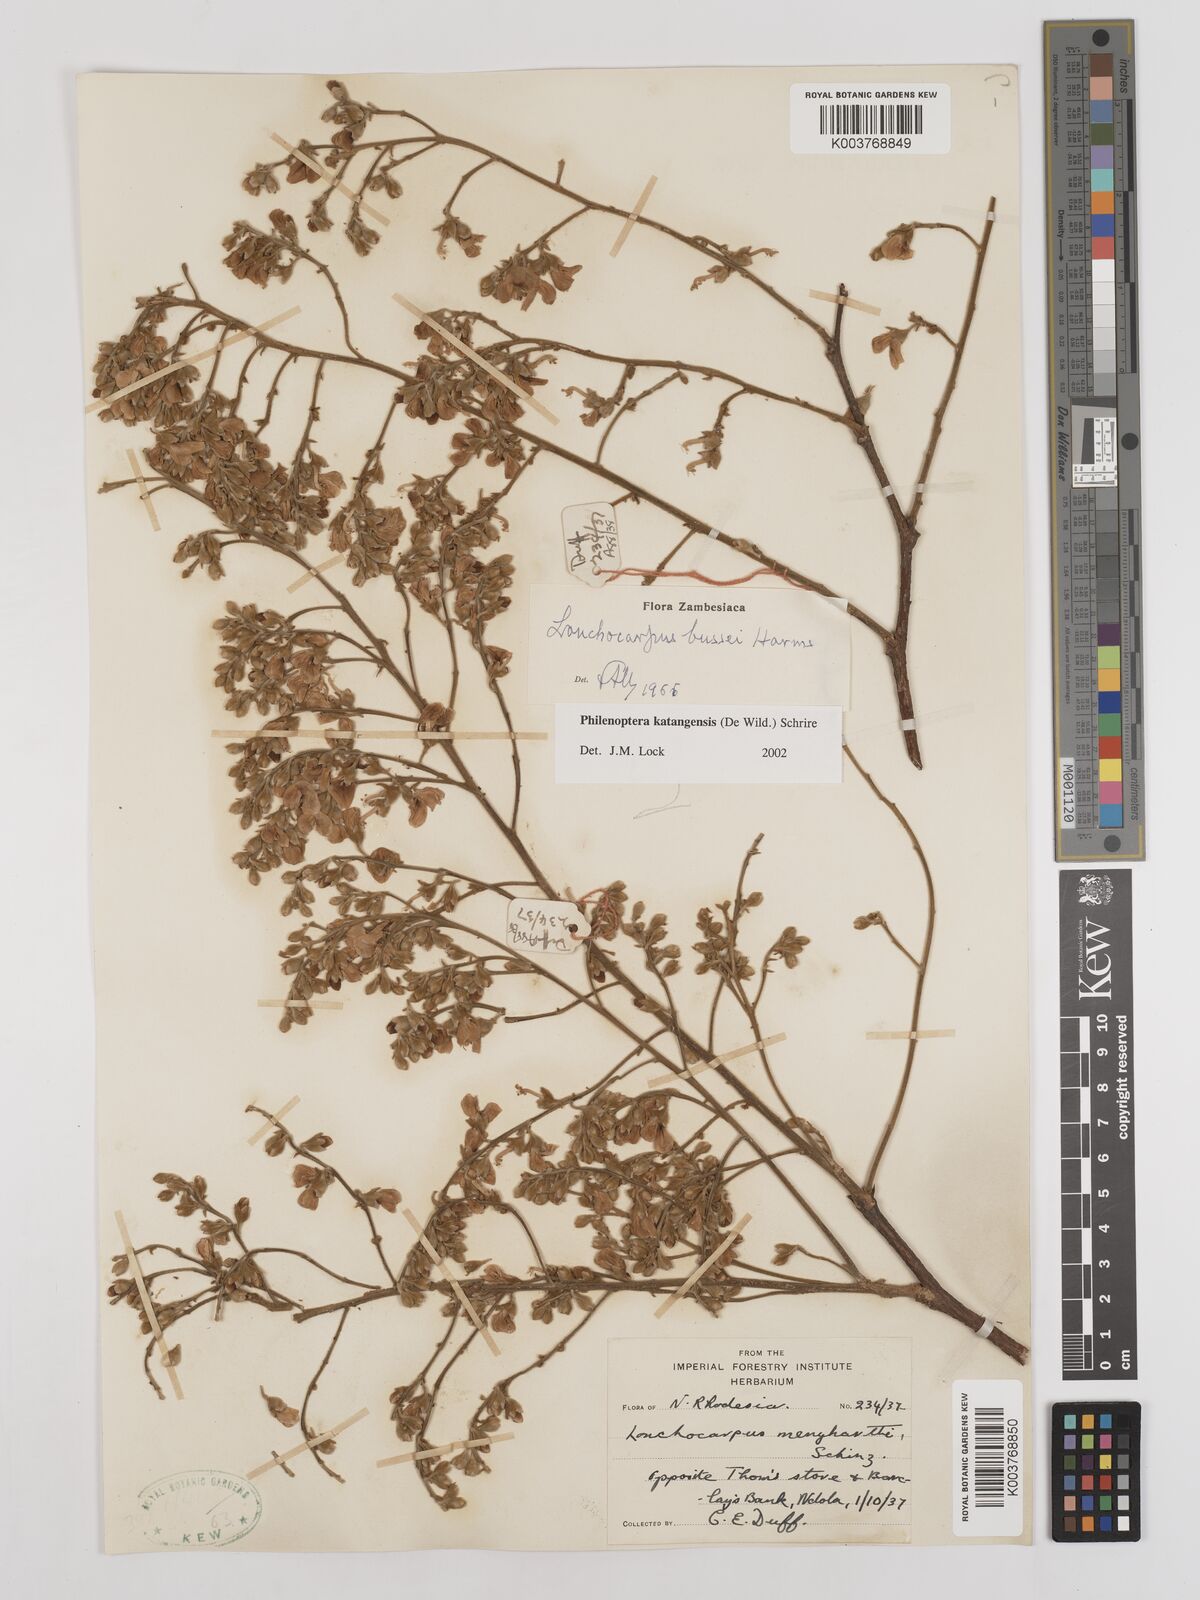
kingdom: Plantae
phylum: Tracheophyta
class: Magnoliopsida
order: Fabales
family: Fabaceae
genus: Philenoptera
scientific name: Philenoptera katangensis
